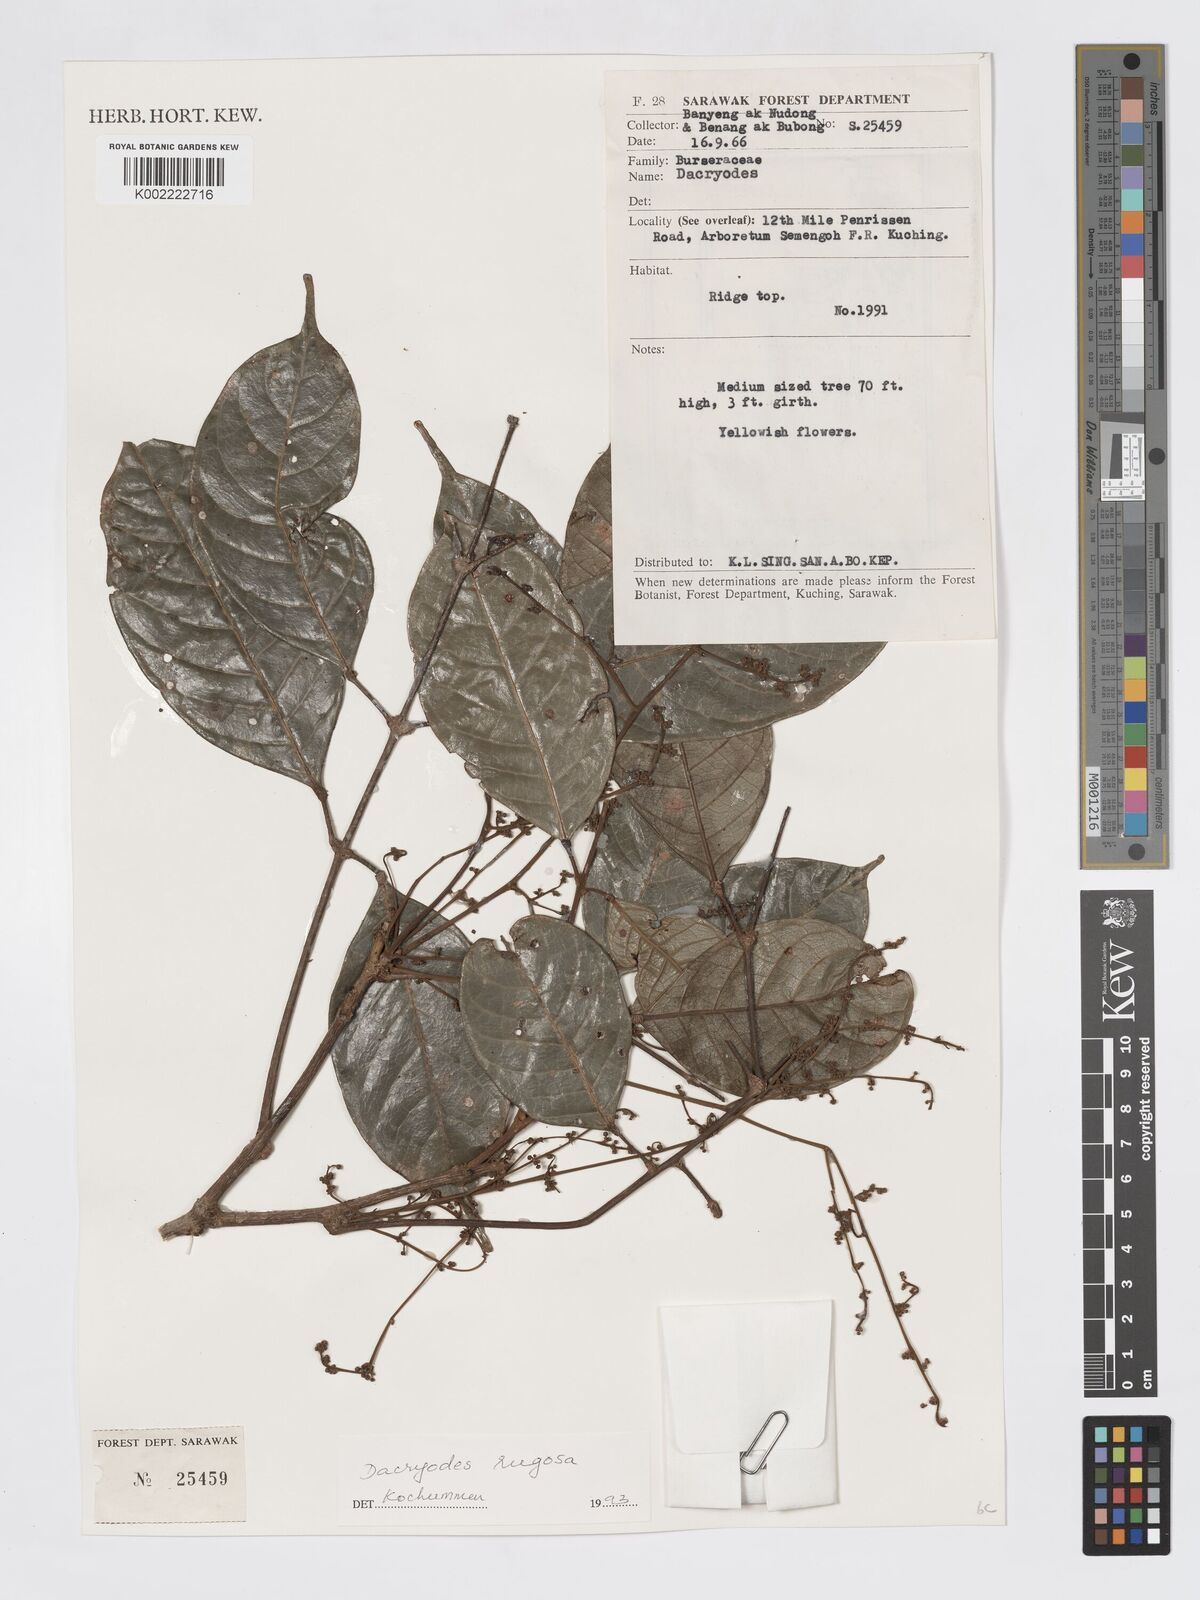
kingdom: Plantae
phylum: Tracheophyta
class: Magnoliopsida
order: Sapindales
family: Burseraceae
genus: Dacryodes
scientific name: Dacryodes rugosa
